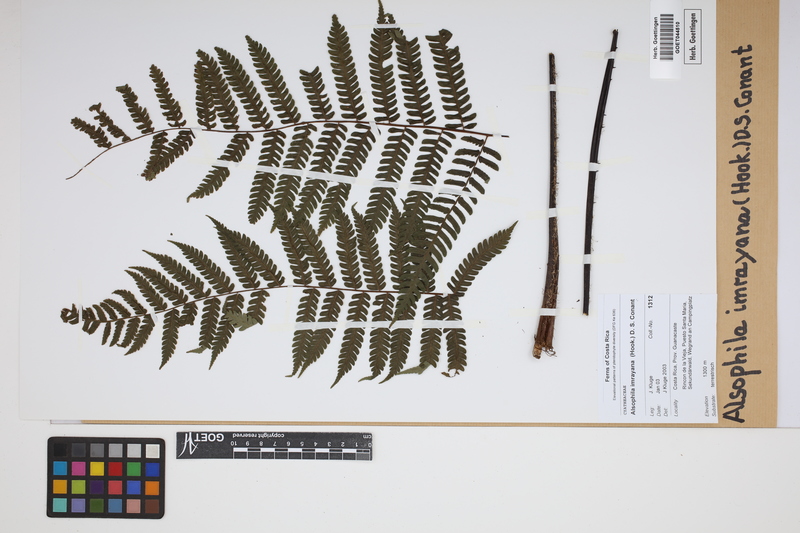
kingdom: Plantae
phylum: Tracheophyta
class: Polypodiopsida
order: Cyatheales
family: Cyatheaceae
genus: Alsophila
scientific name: Alsophila imrayana
